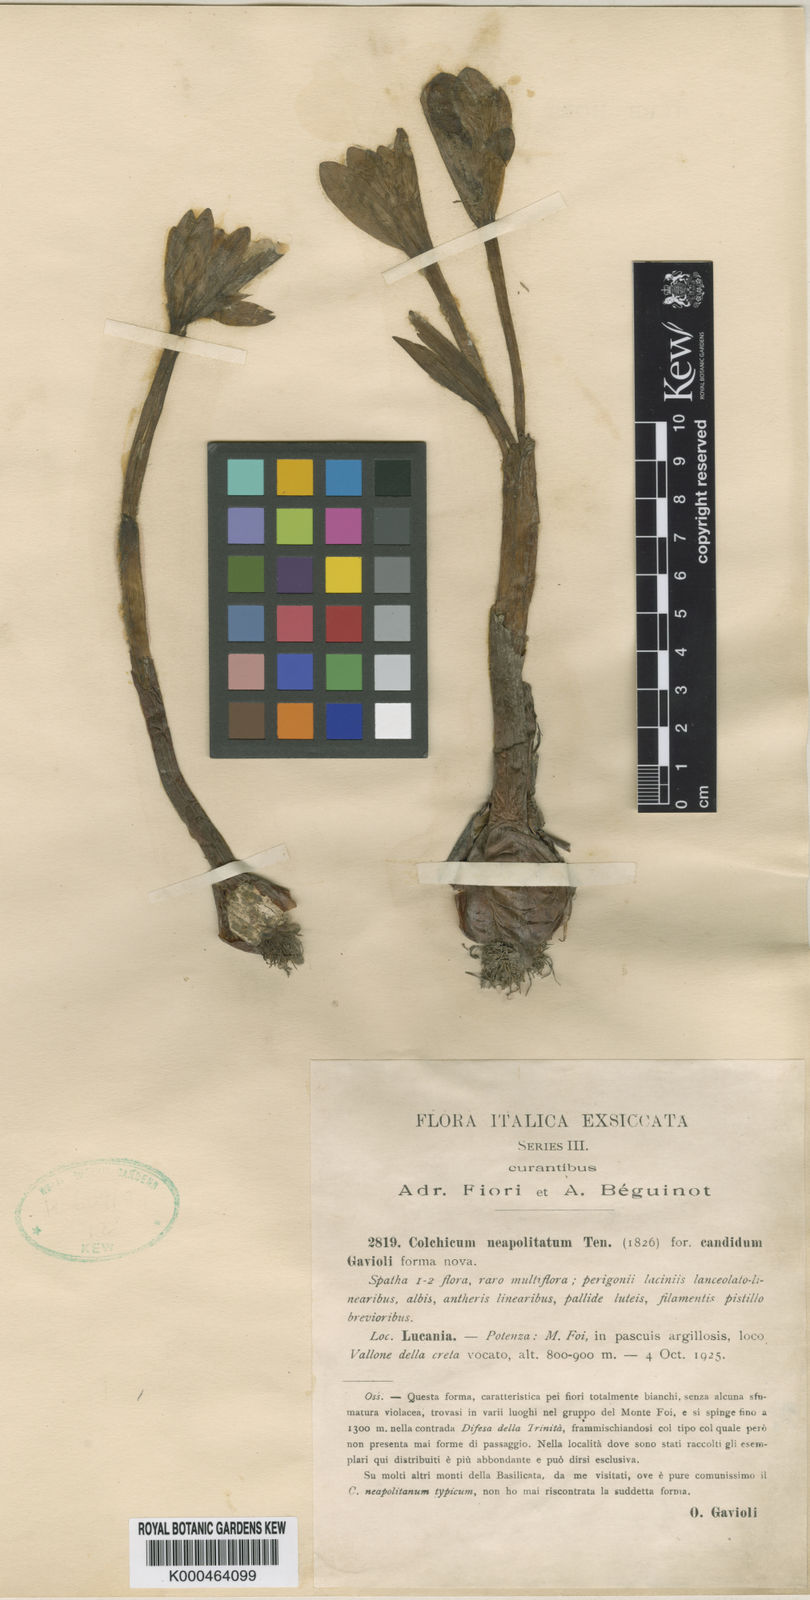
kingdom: Plantae
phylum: Tracheophyta
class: Liliopsida
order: Liliales
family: Colchicaceae
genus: Colchicum
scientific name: Colchicum neapolitanum
